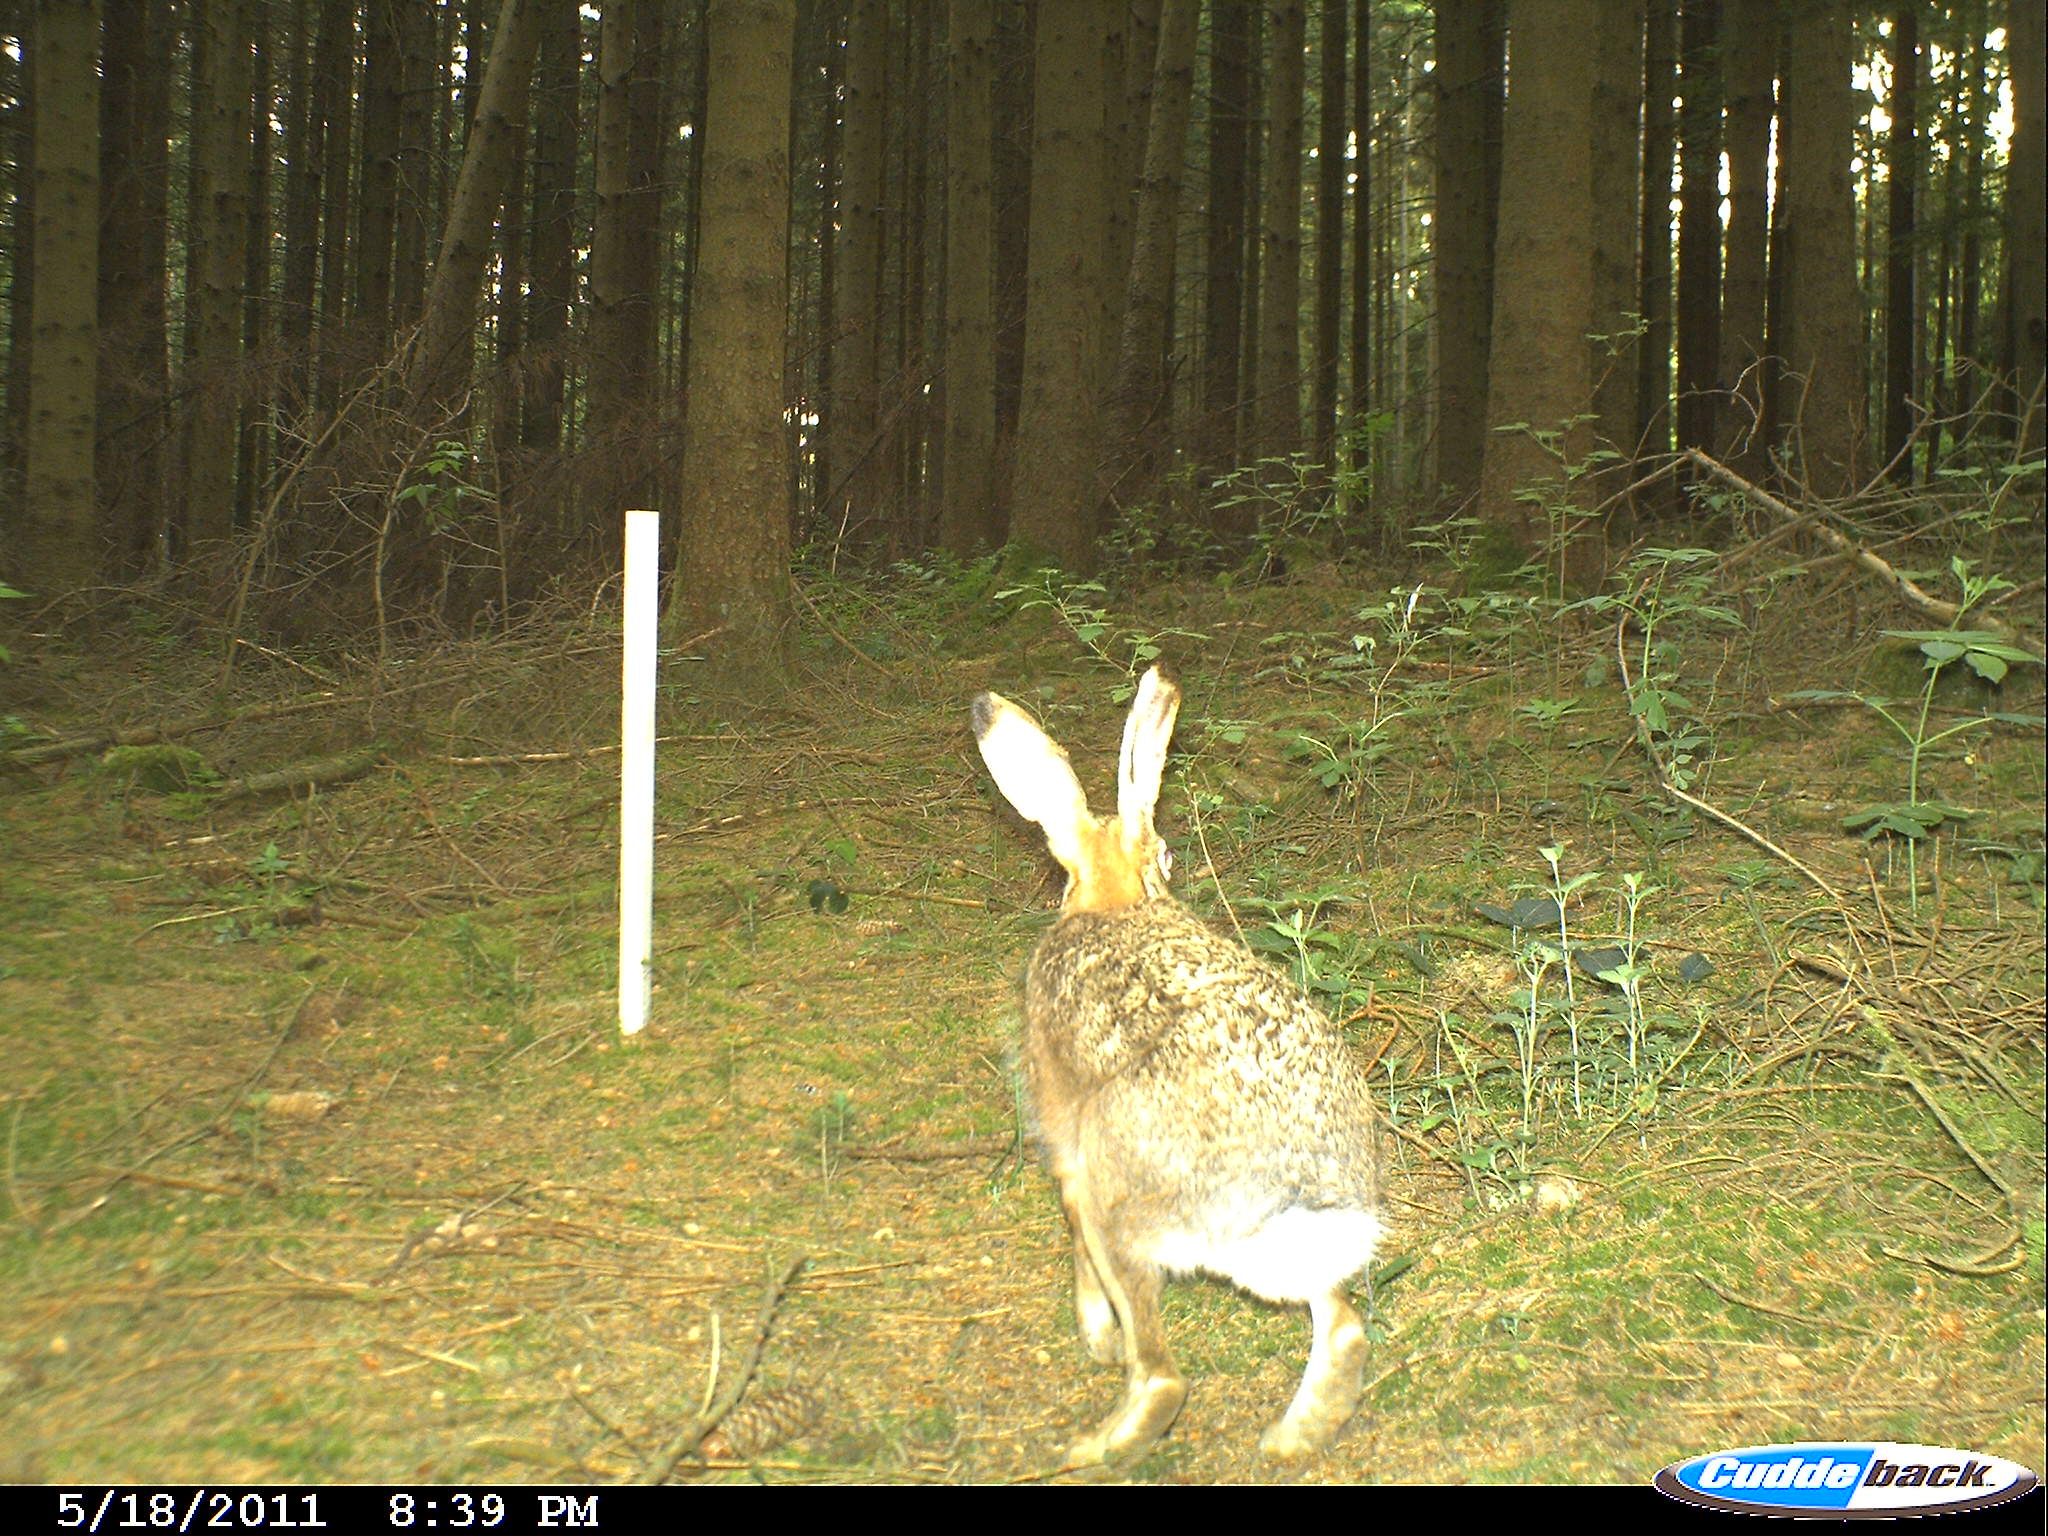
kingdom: Animalia
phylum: Chordata
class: Mammalia
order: Lagomorpha
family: Leporidae
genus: Lepus
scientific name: Lepus europaeus
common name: European hare
